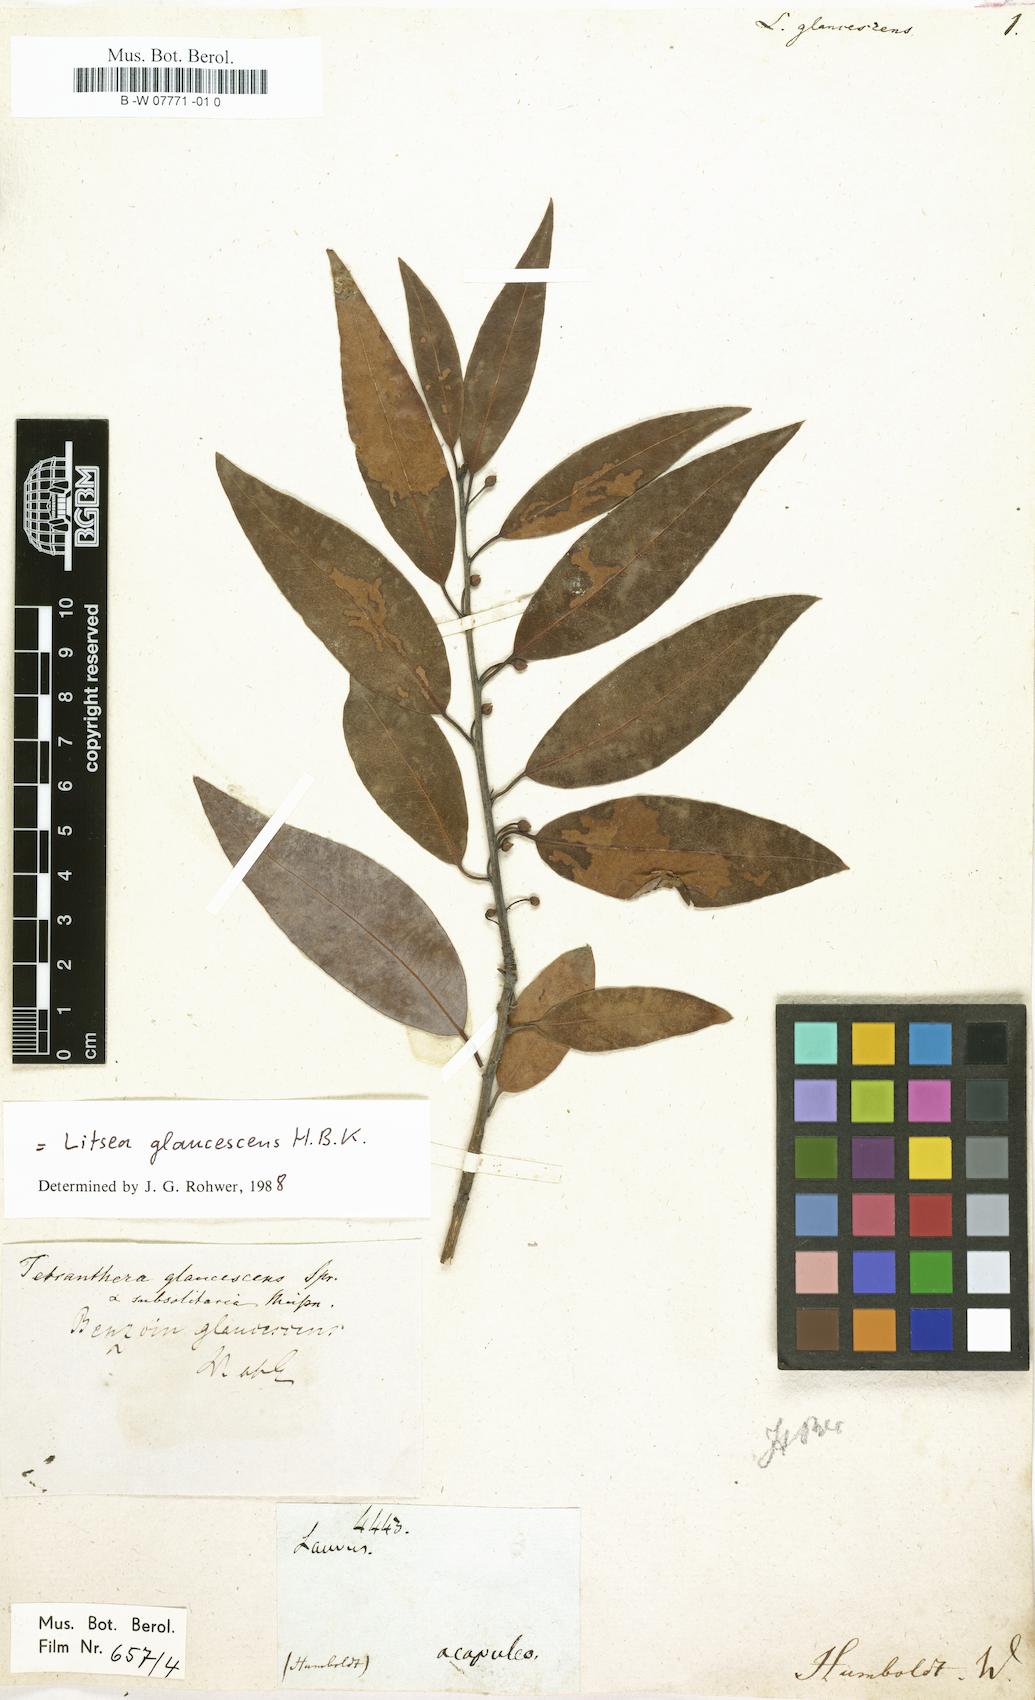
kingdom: Plantae
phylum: Tracheophyta
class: Magnoliopsida
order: Laurales
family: Lauraceae
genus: Laurus
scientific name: Laurus glaucescens
